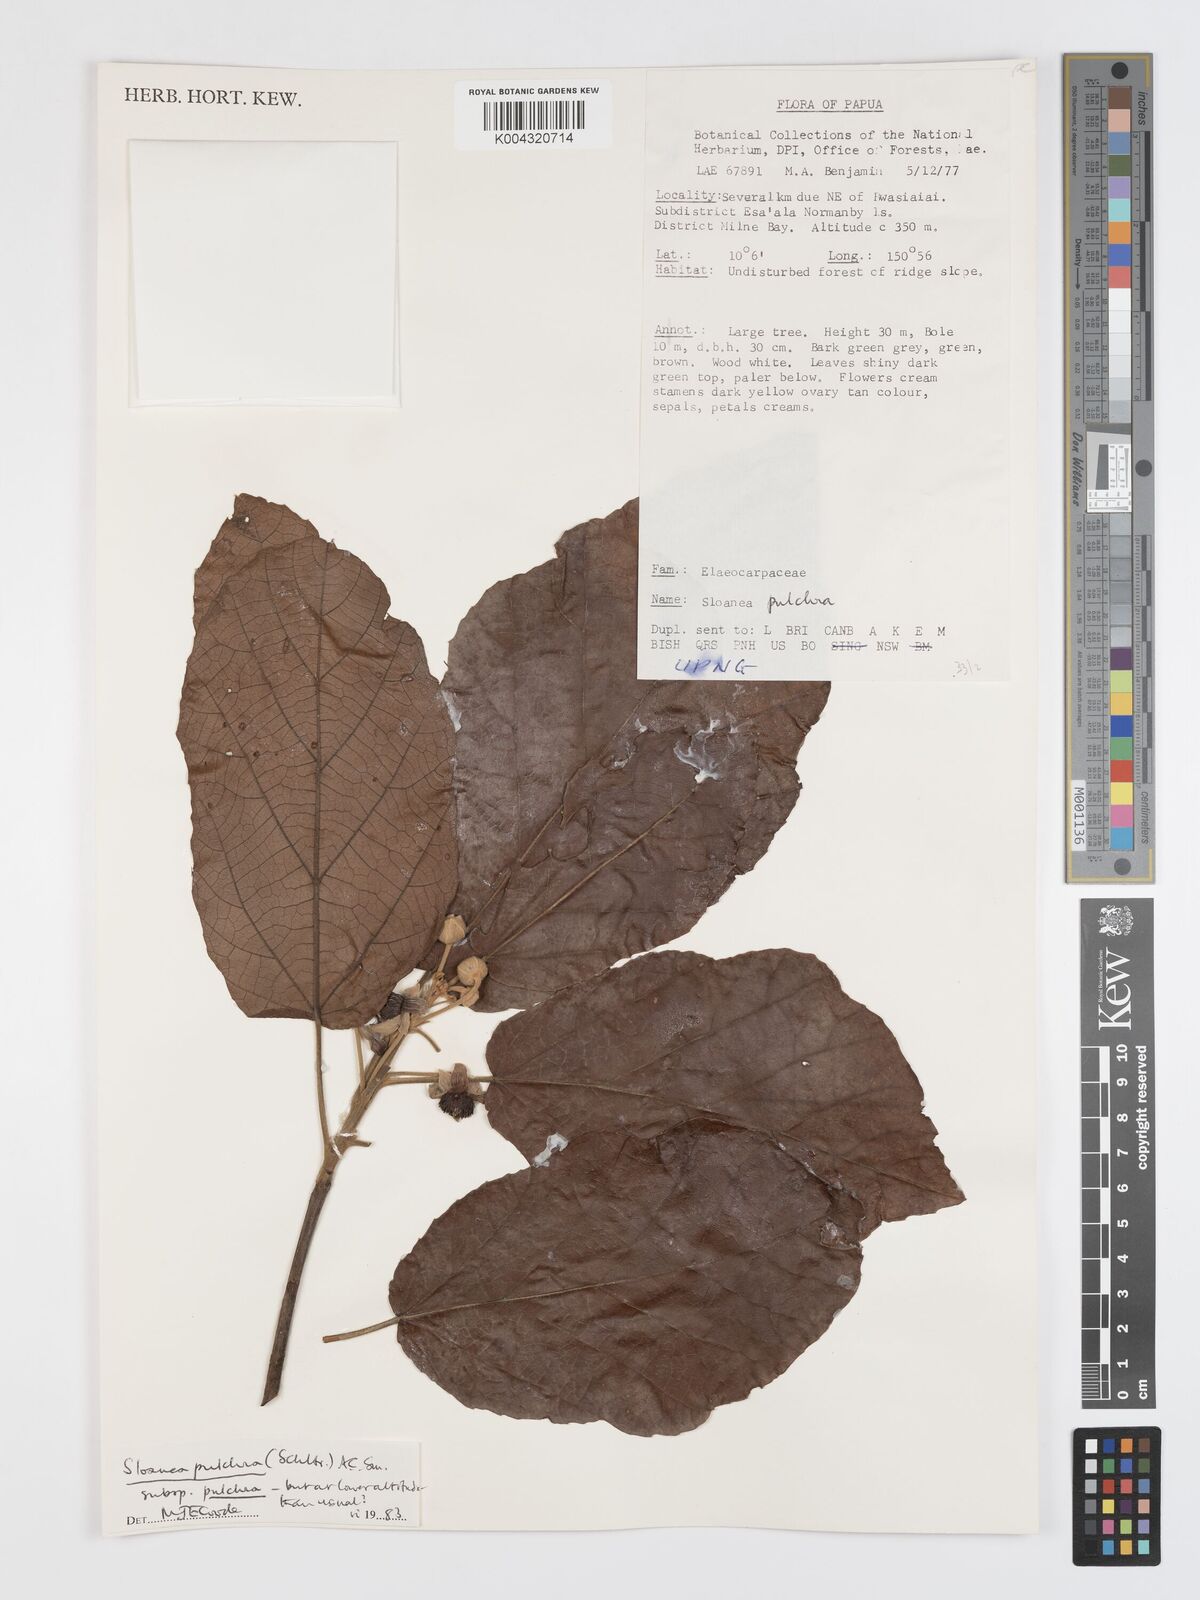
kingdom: Plantae
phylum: Tracheophyta
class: Magnoliopsida
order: Oxalidales
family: Elaeocarpaceae
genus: Sloanea
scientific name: Sloanea pulchra
